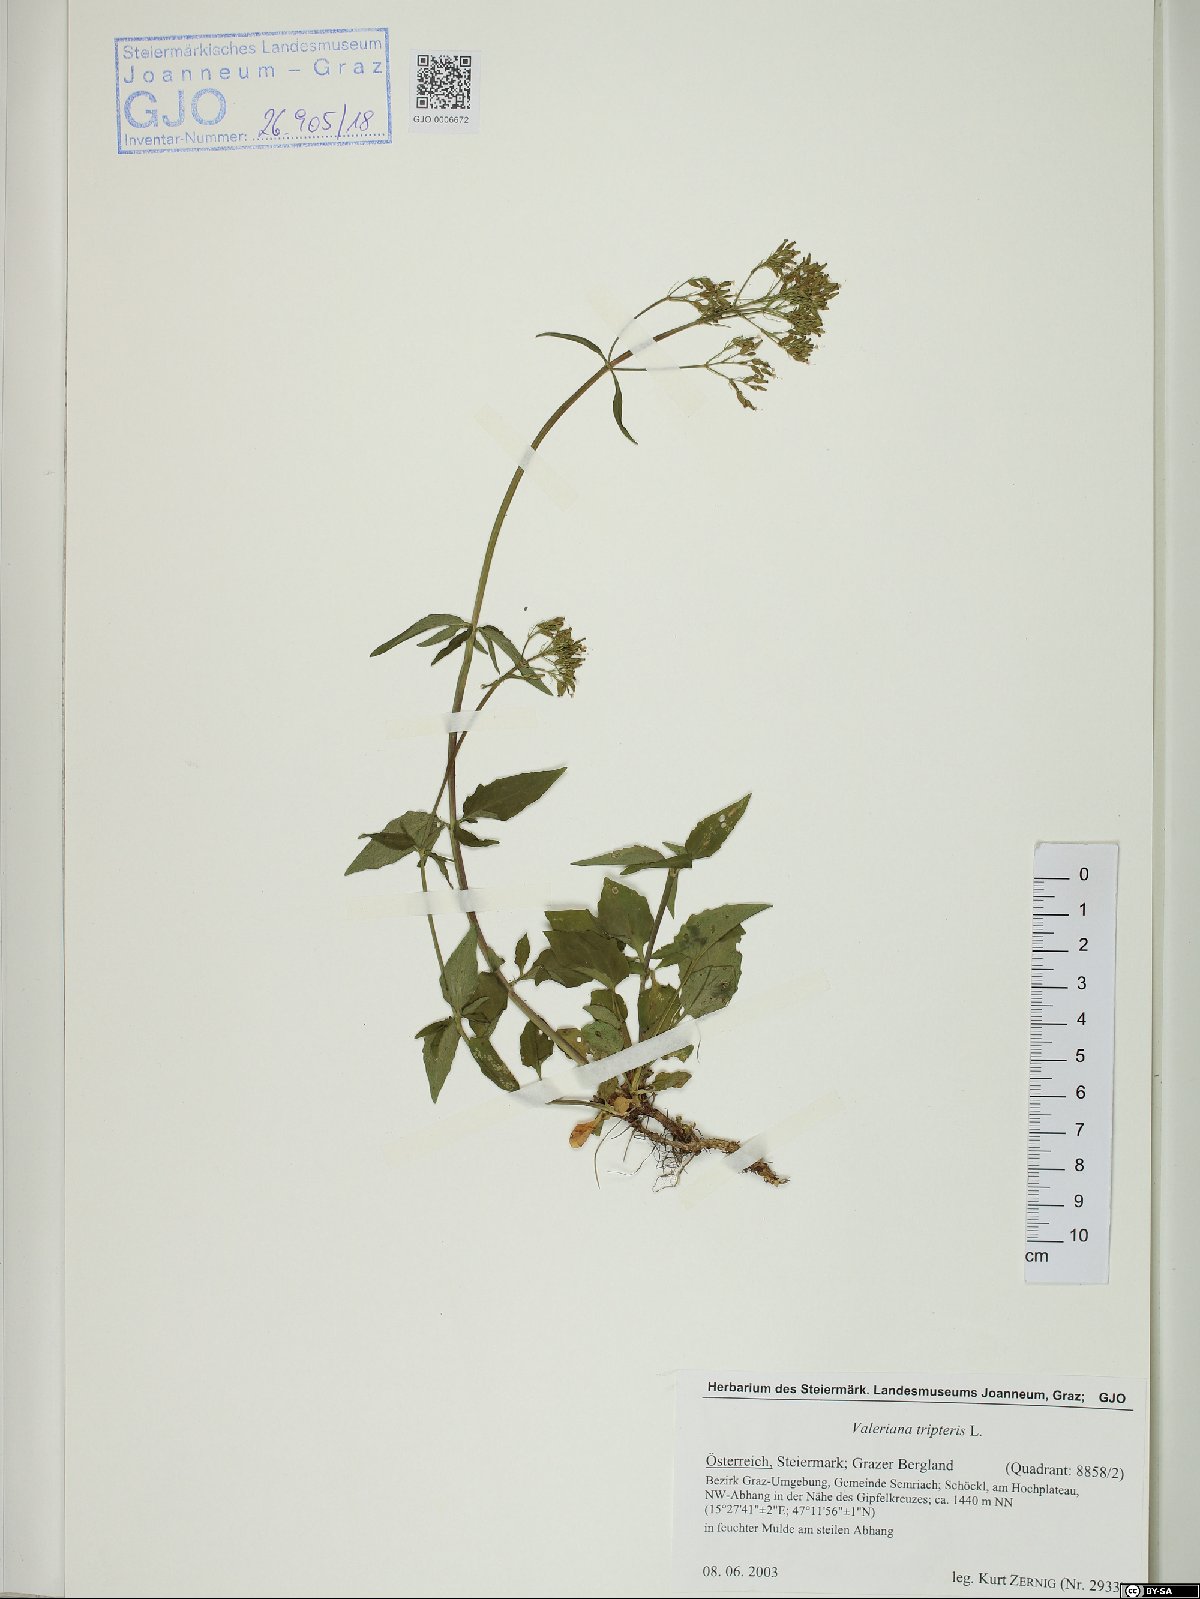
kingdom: Plantae
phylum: Tracheophyta
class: Magnoliopsida
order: Dipsacales
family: Caprifoliaceae
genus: Valeriana
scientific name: Valeriana tripteris
